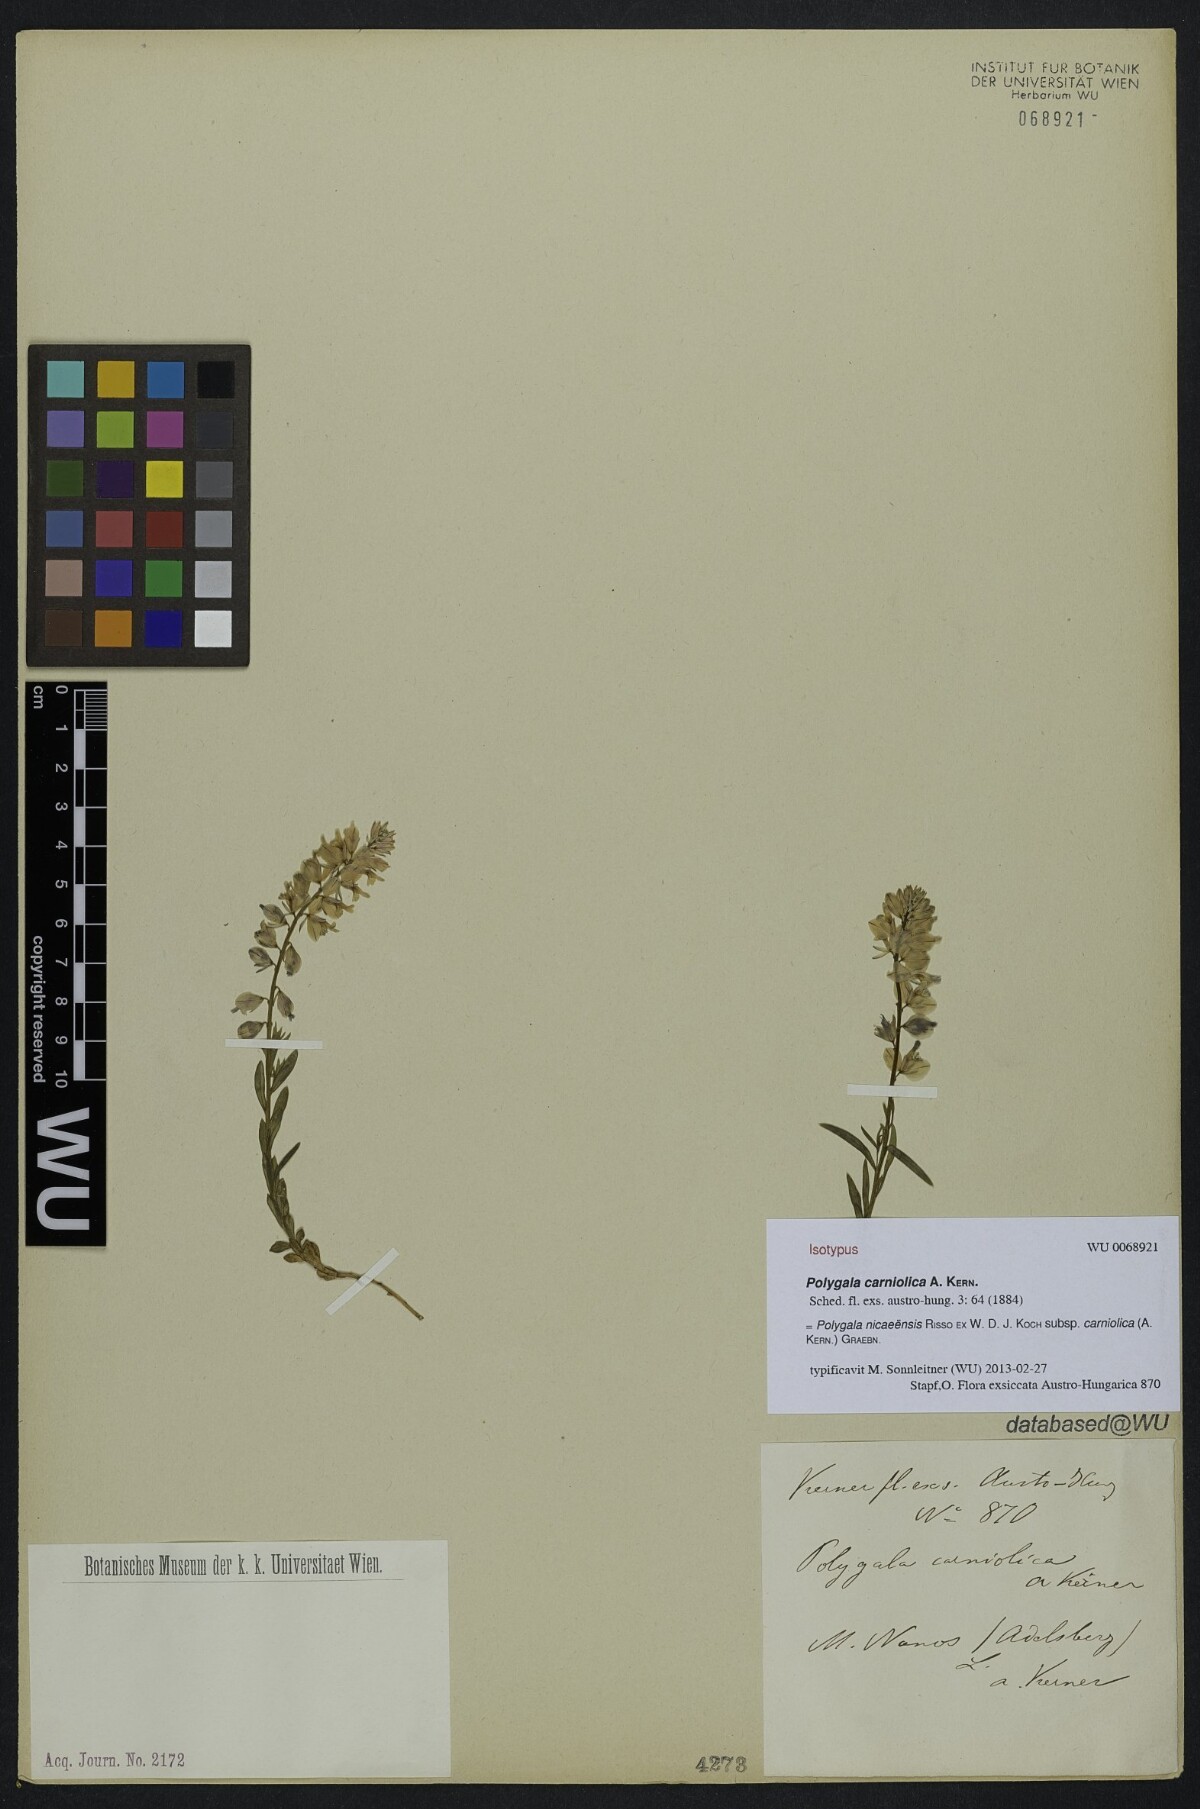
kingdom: Plantae
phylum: Tracheophyta
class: Magnoliopsida
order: Fabales
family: Polygalaceae
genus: Polygala
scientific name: Polygala forojulensis
